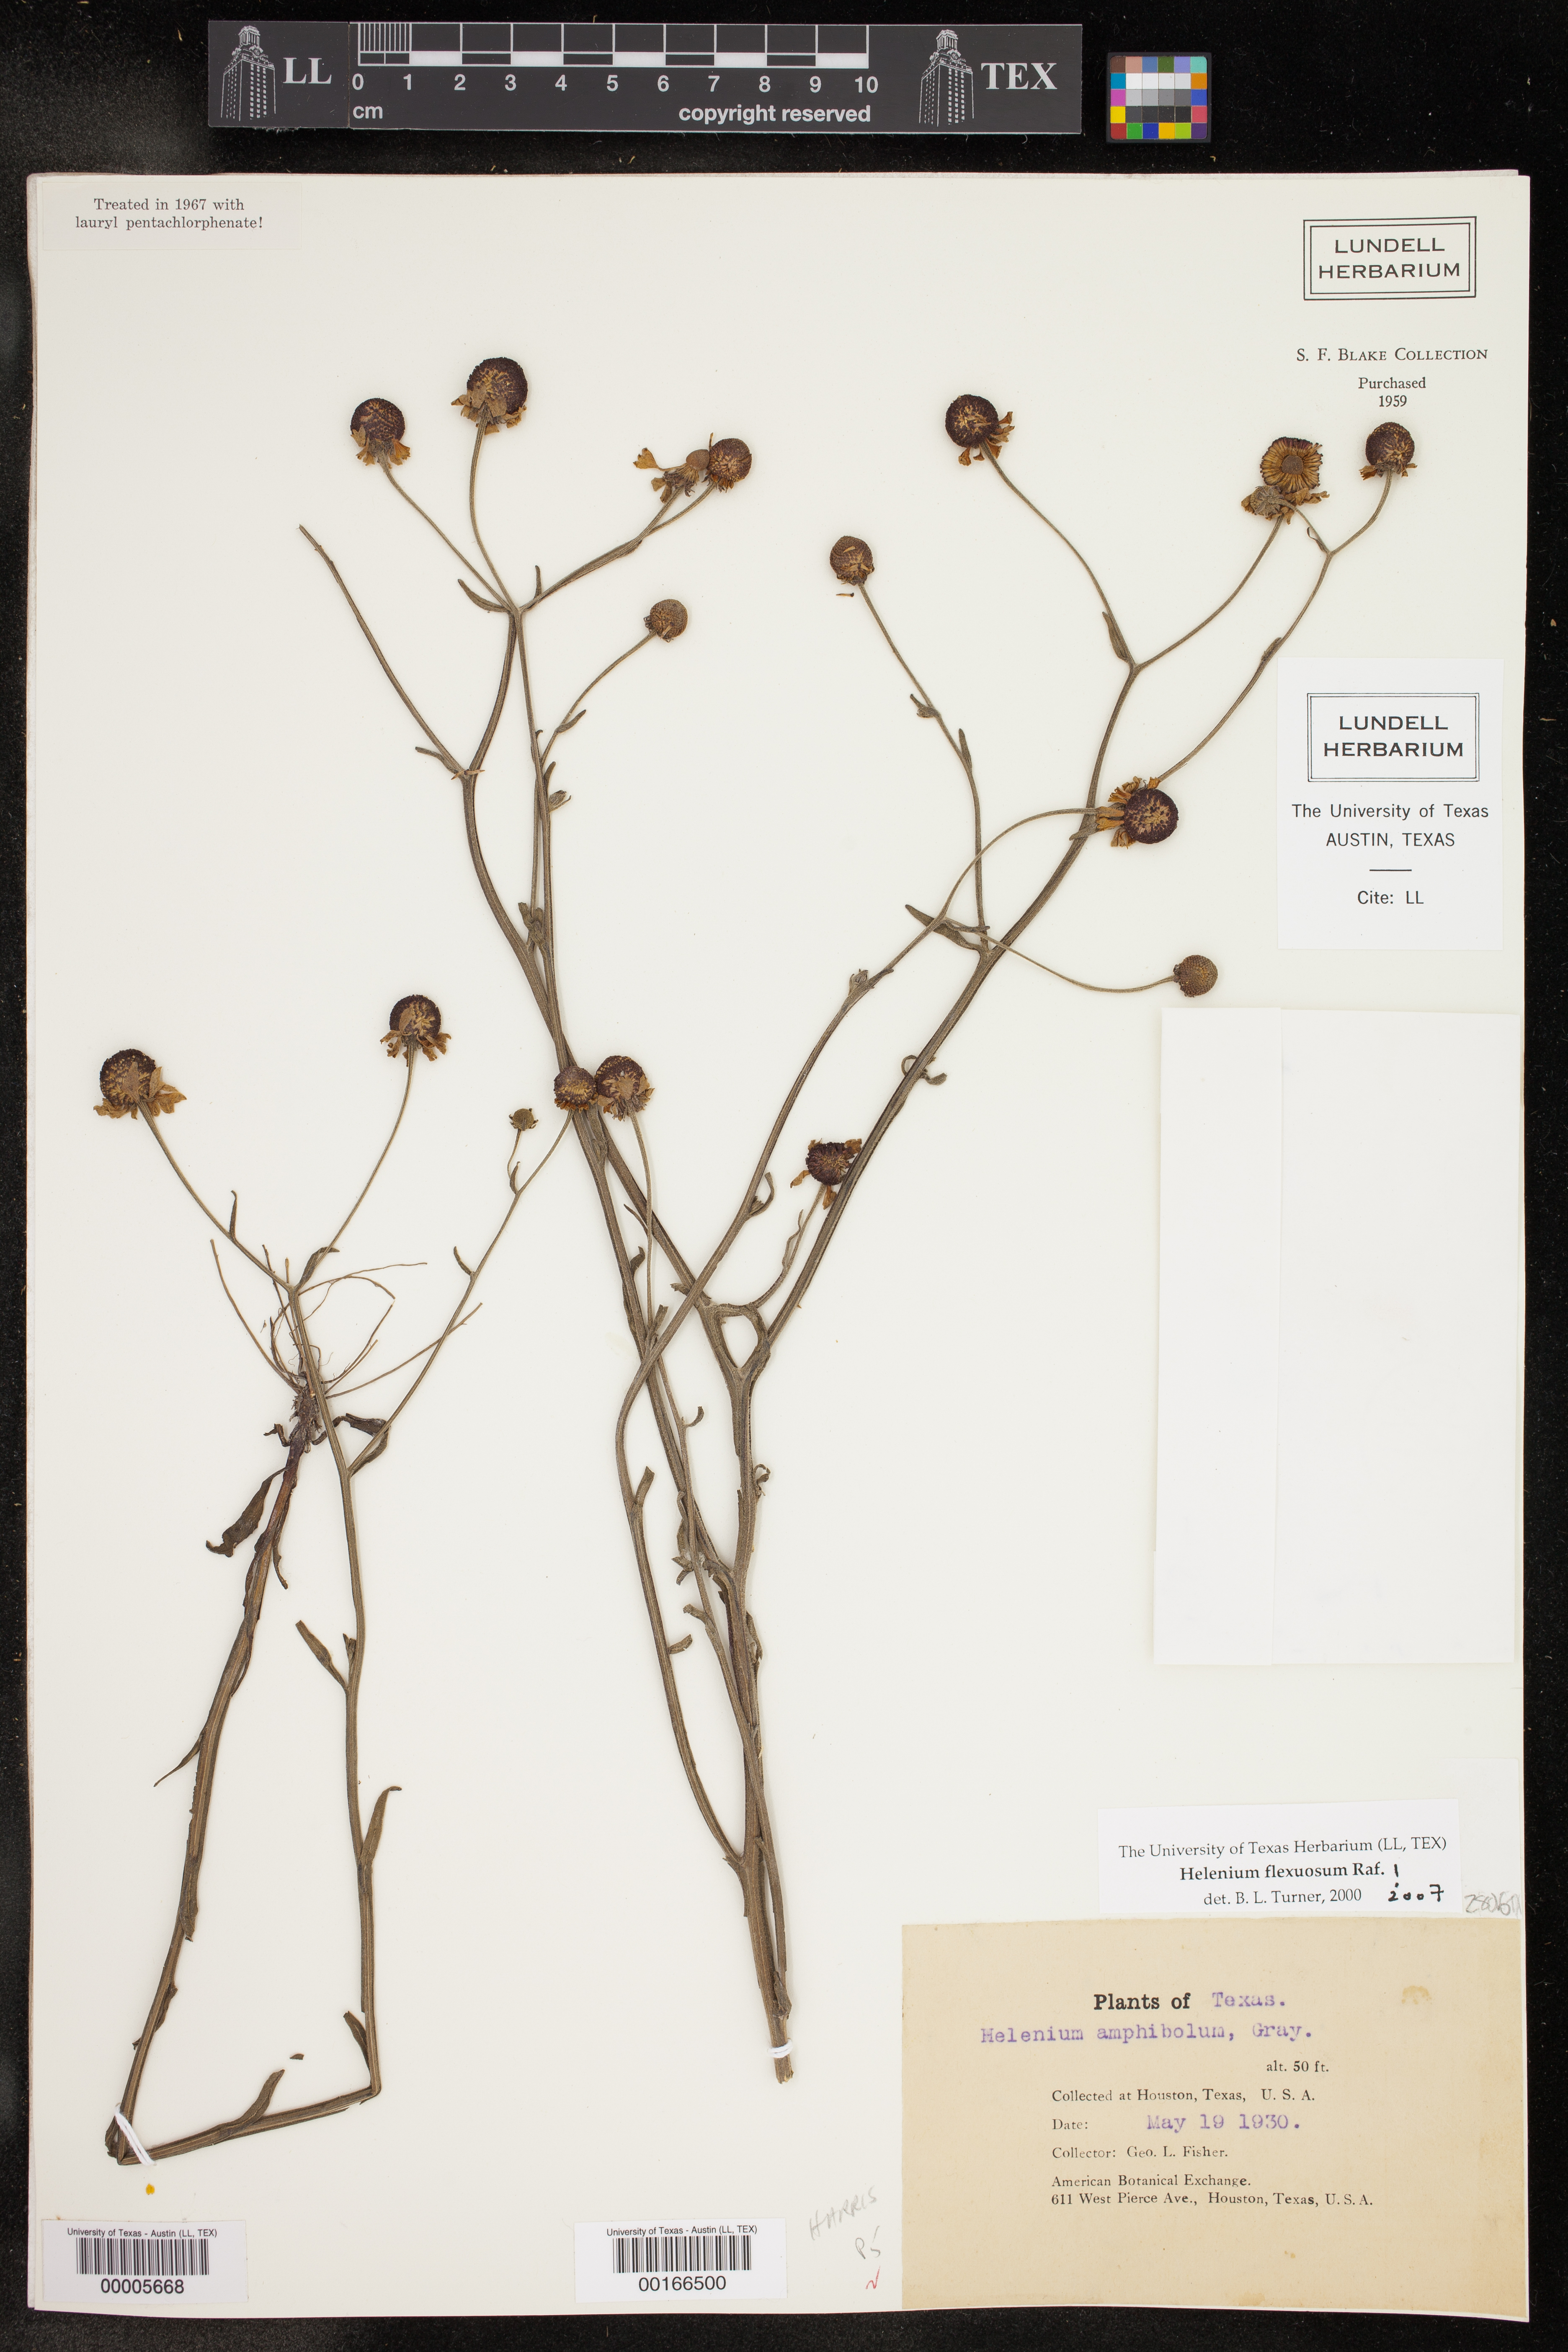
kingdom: Plantae
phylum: Tracheophyta
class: Magnoliopsida
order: Asterales
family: Asteraceae
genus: Helenium
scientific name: Helenium flexuosum
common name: Naked-flowered sneezeweed
